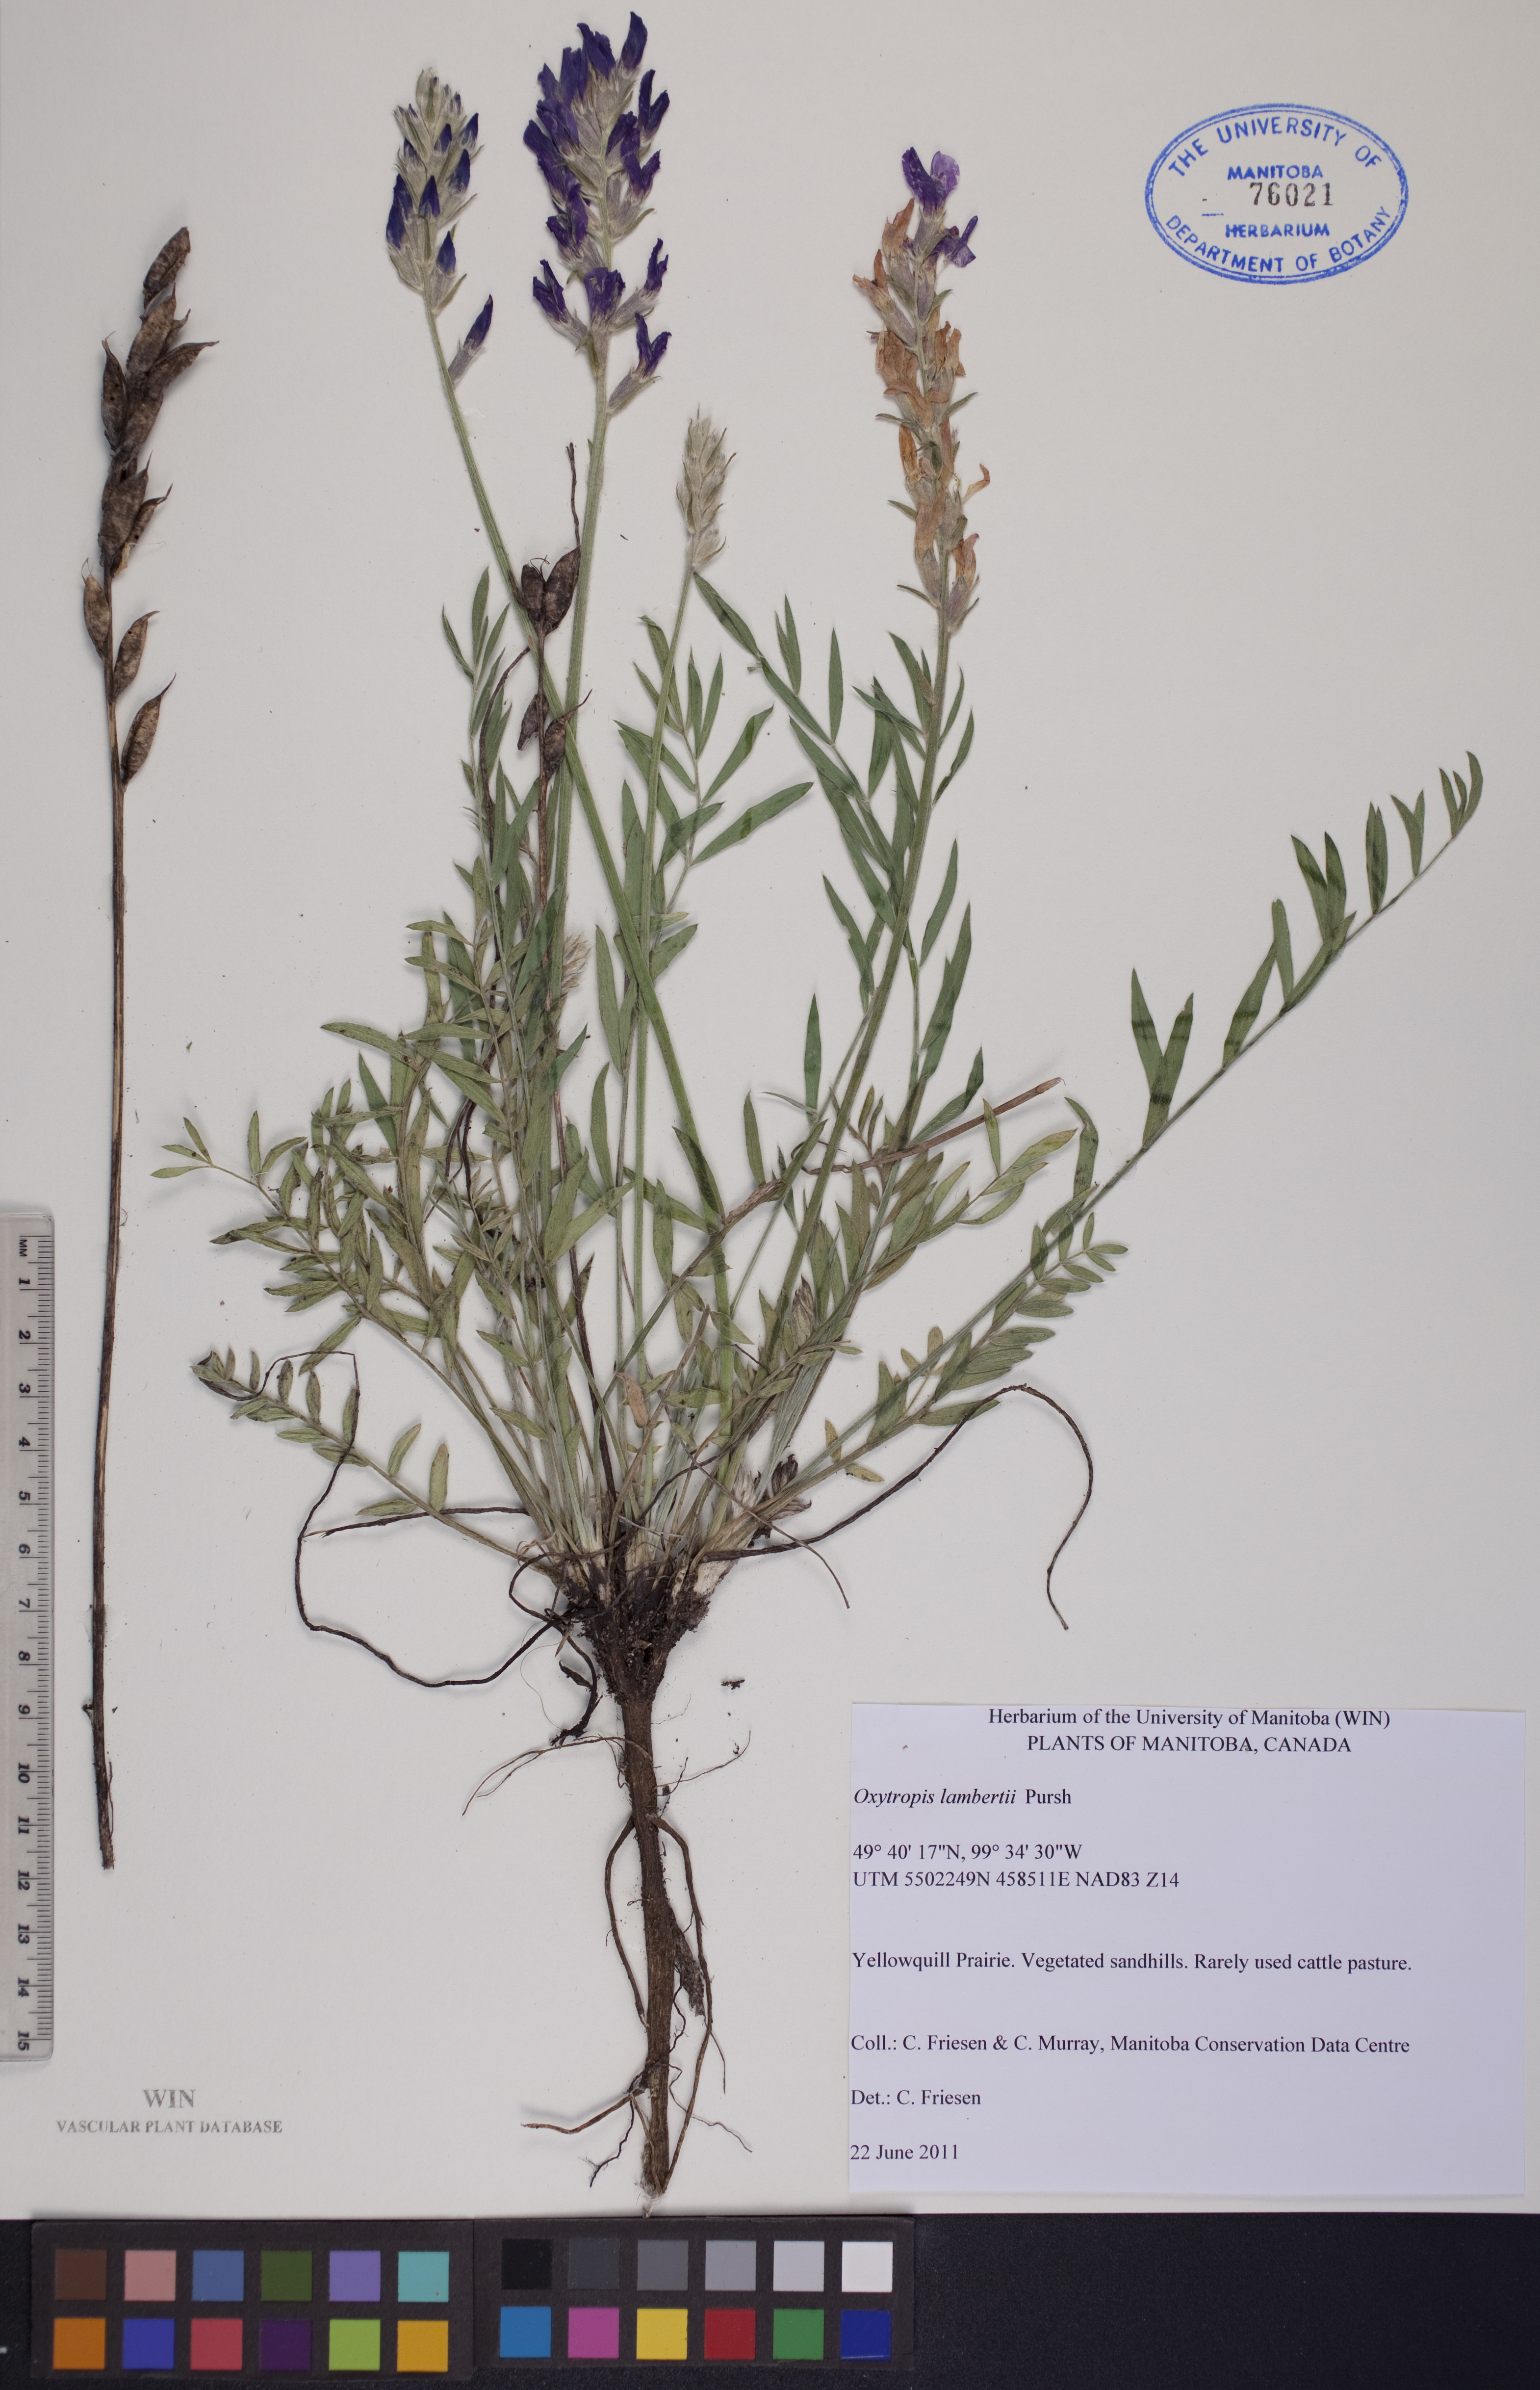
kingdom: Plantae
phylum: Tracheophyta
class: Magnoliopsida
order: Fabales
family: Fabaceae
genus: Oxytropis
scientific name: Oxytropis lambertii
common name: Purple locoweed
